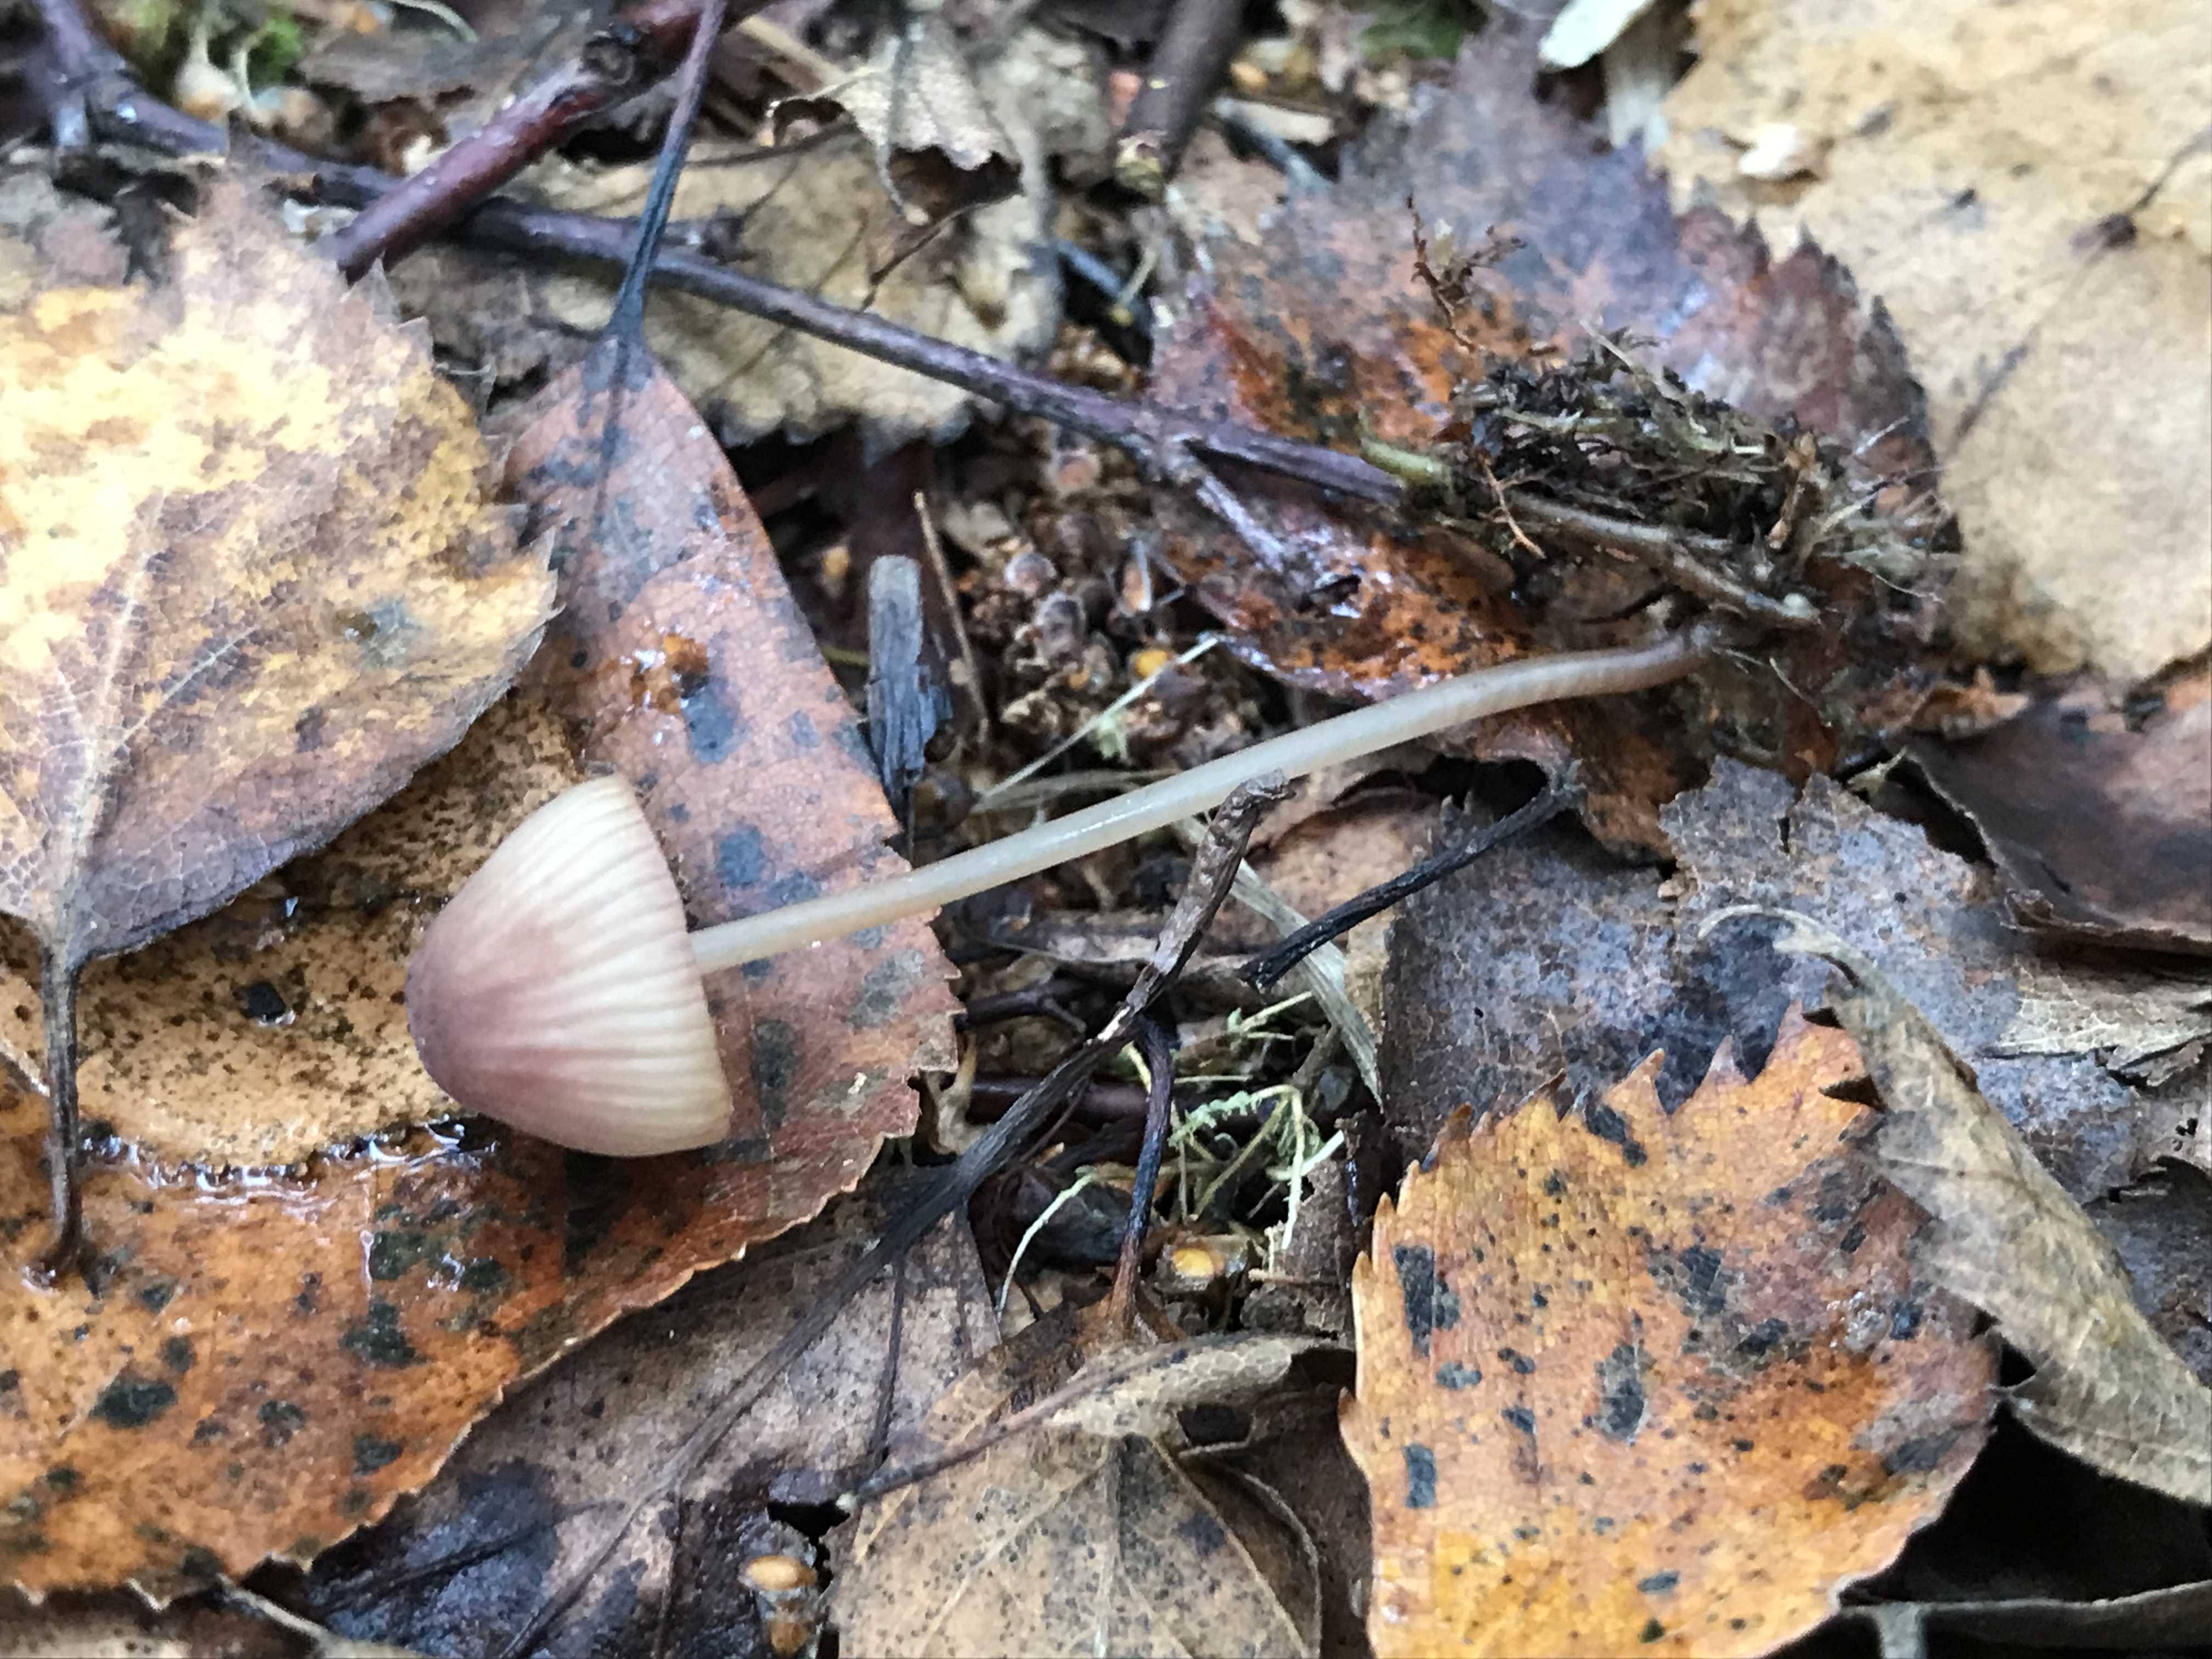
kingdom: Fungi
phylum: Basidiomycota
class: Agaricomycetes
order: Agaricales
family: Mycenaceae
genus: Mycena
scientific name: Mycena sanguinolenta
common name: rødmælket huesvamp
